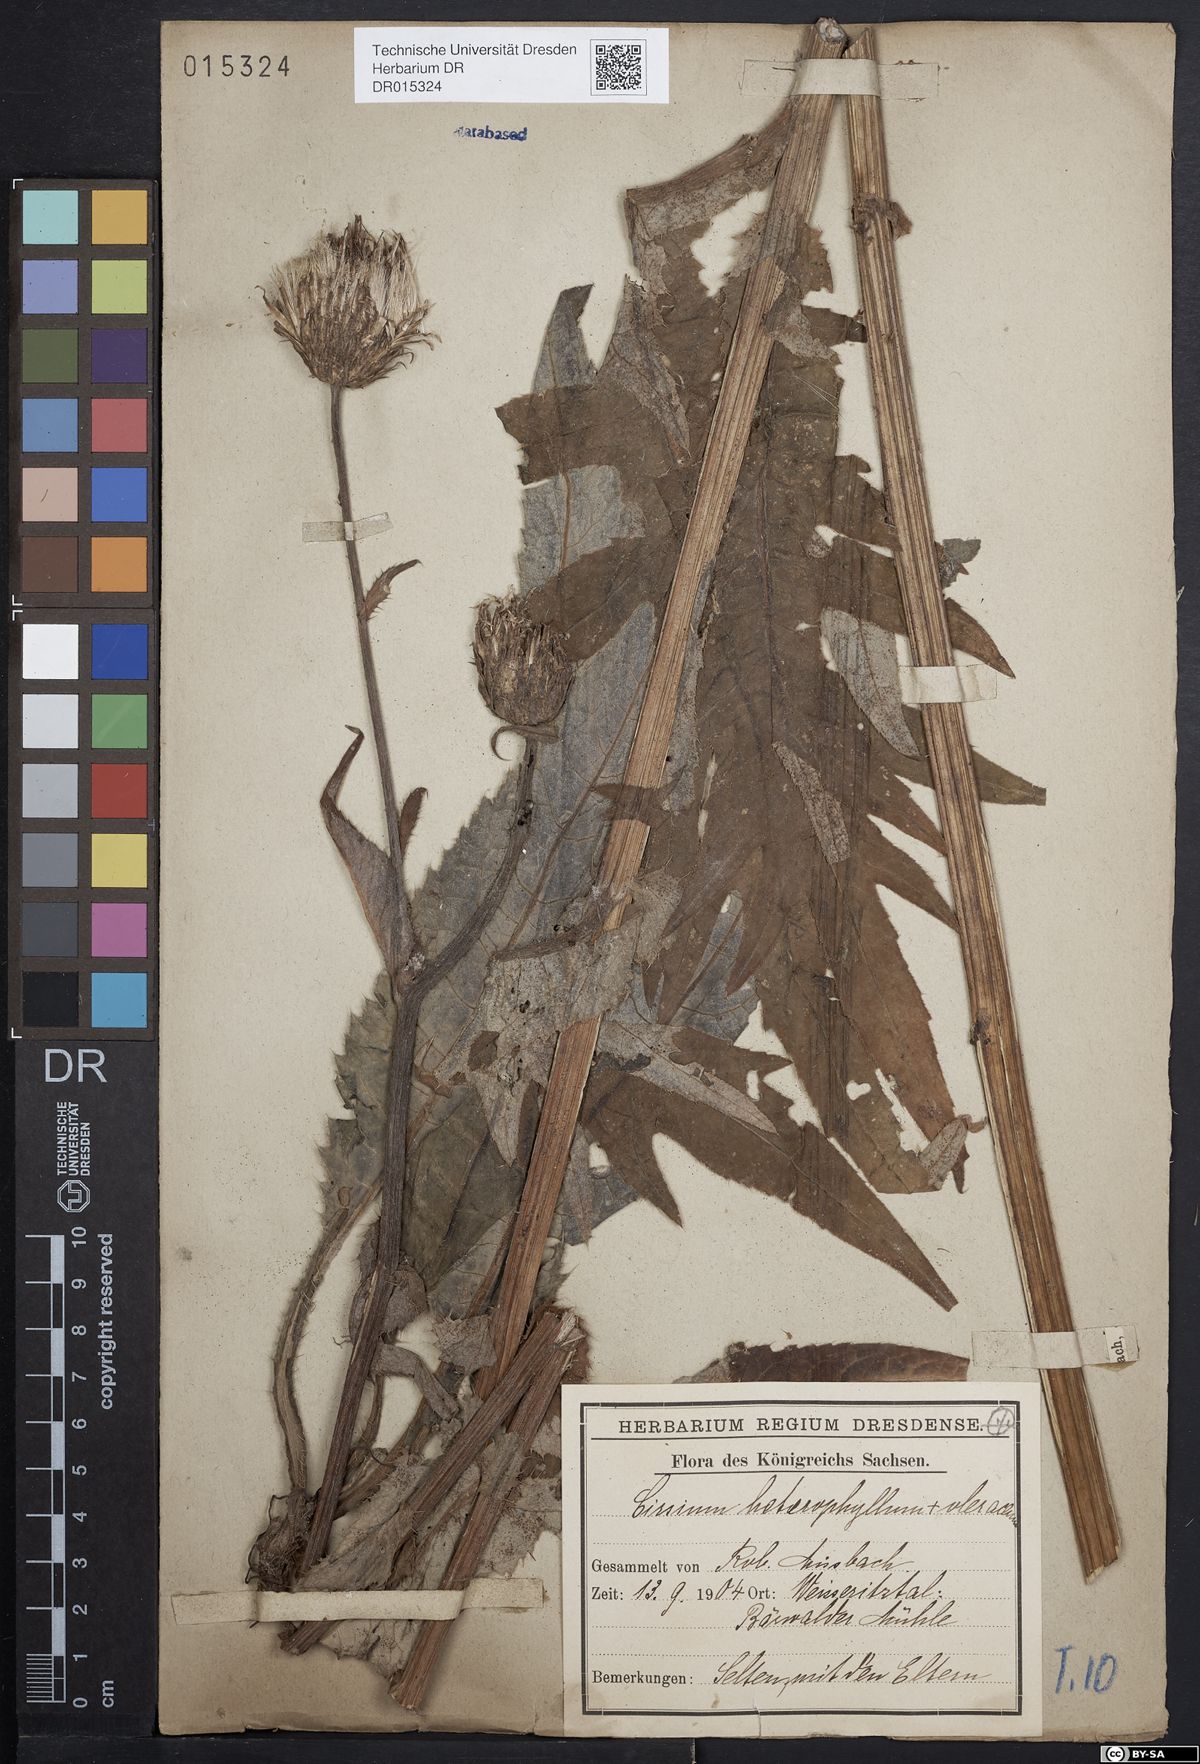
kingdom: Plantae
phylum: Tracheophyta
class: Magnoliopsida
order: Asterales
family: Asteraceae
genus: Cirsium
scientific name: Cirsium affine
